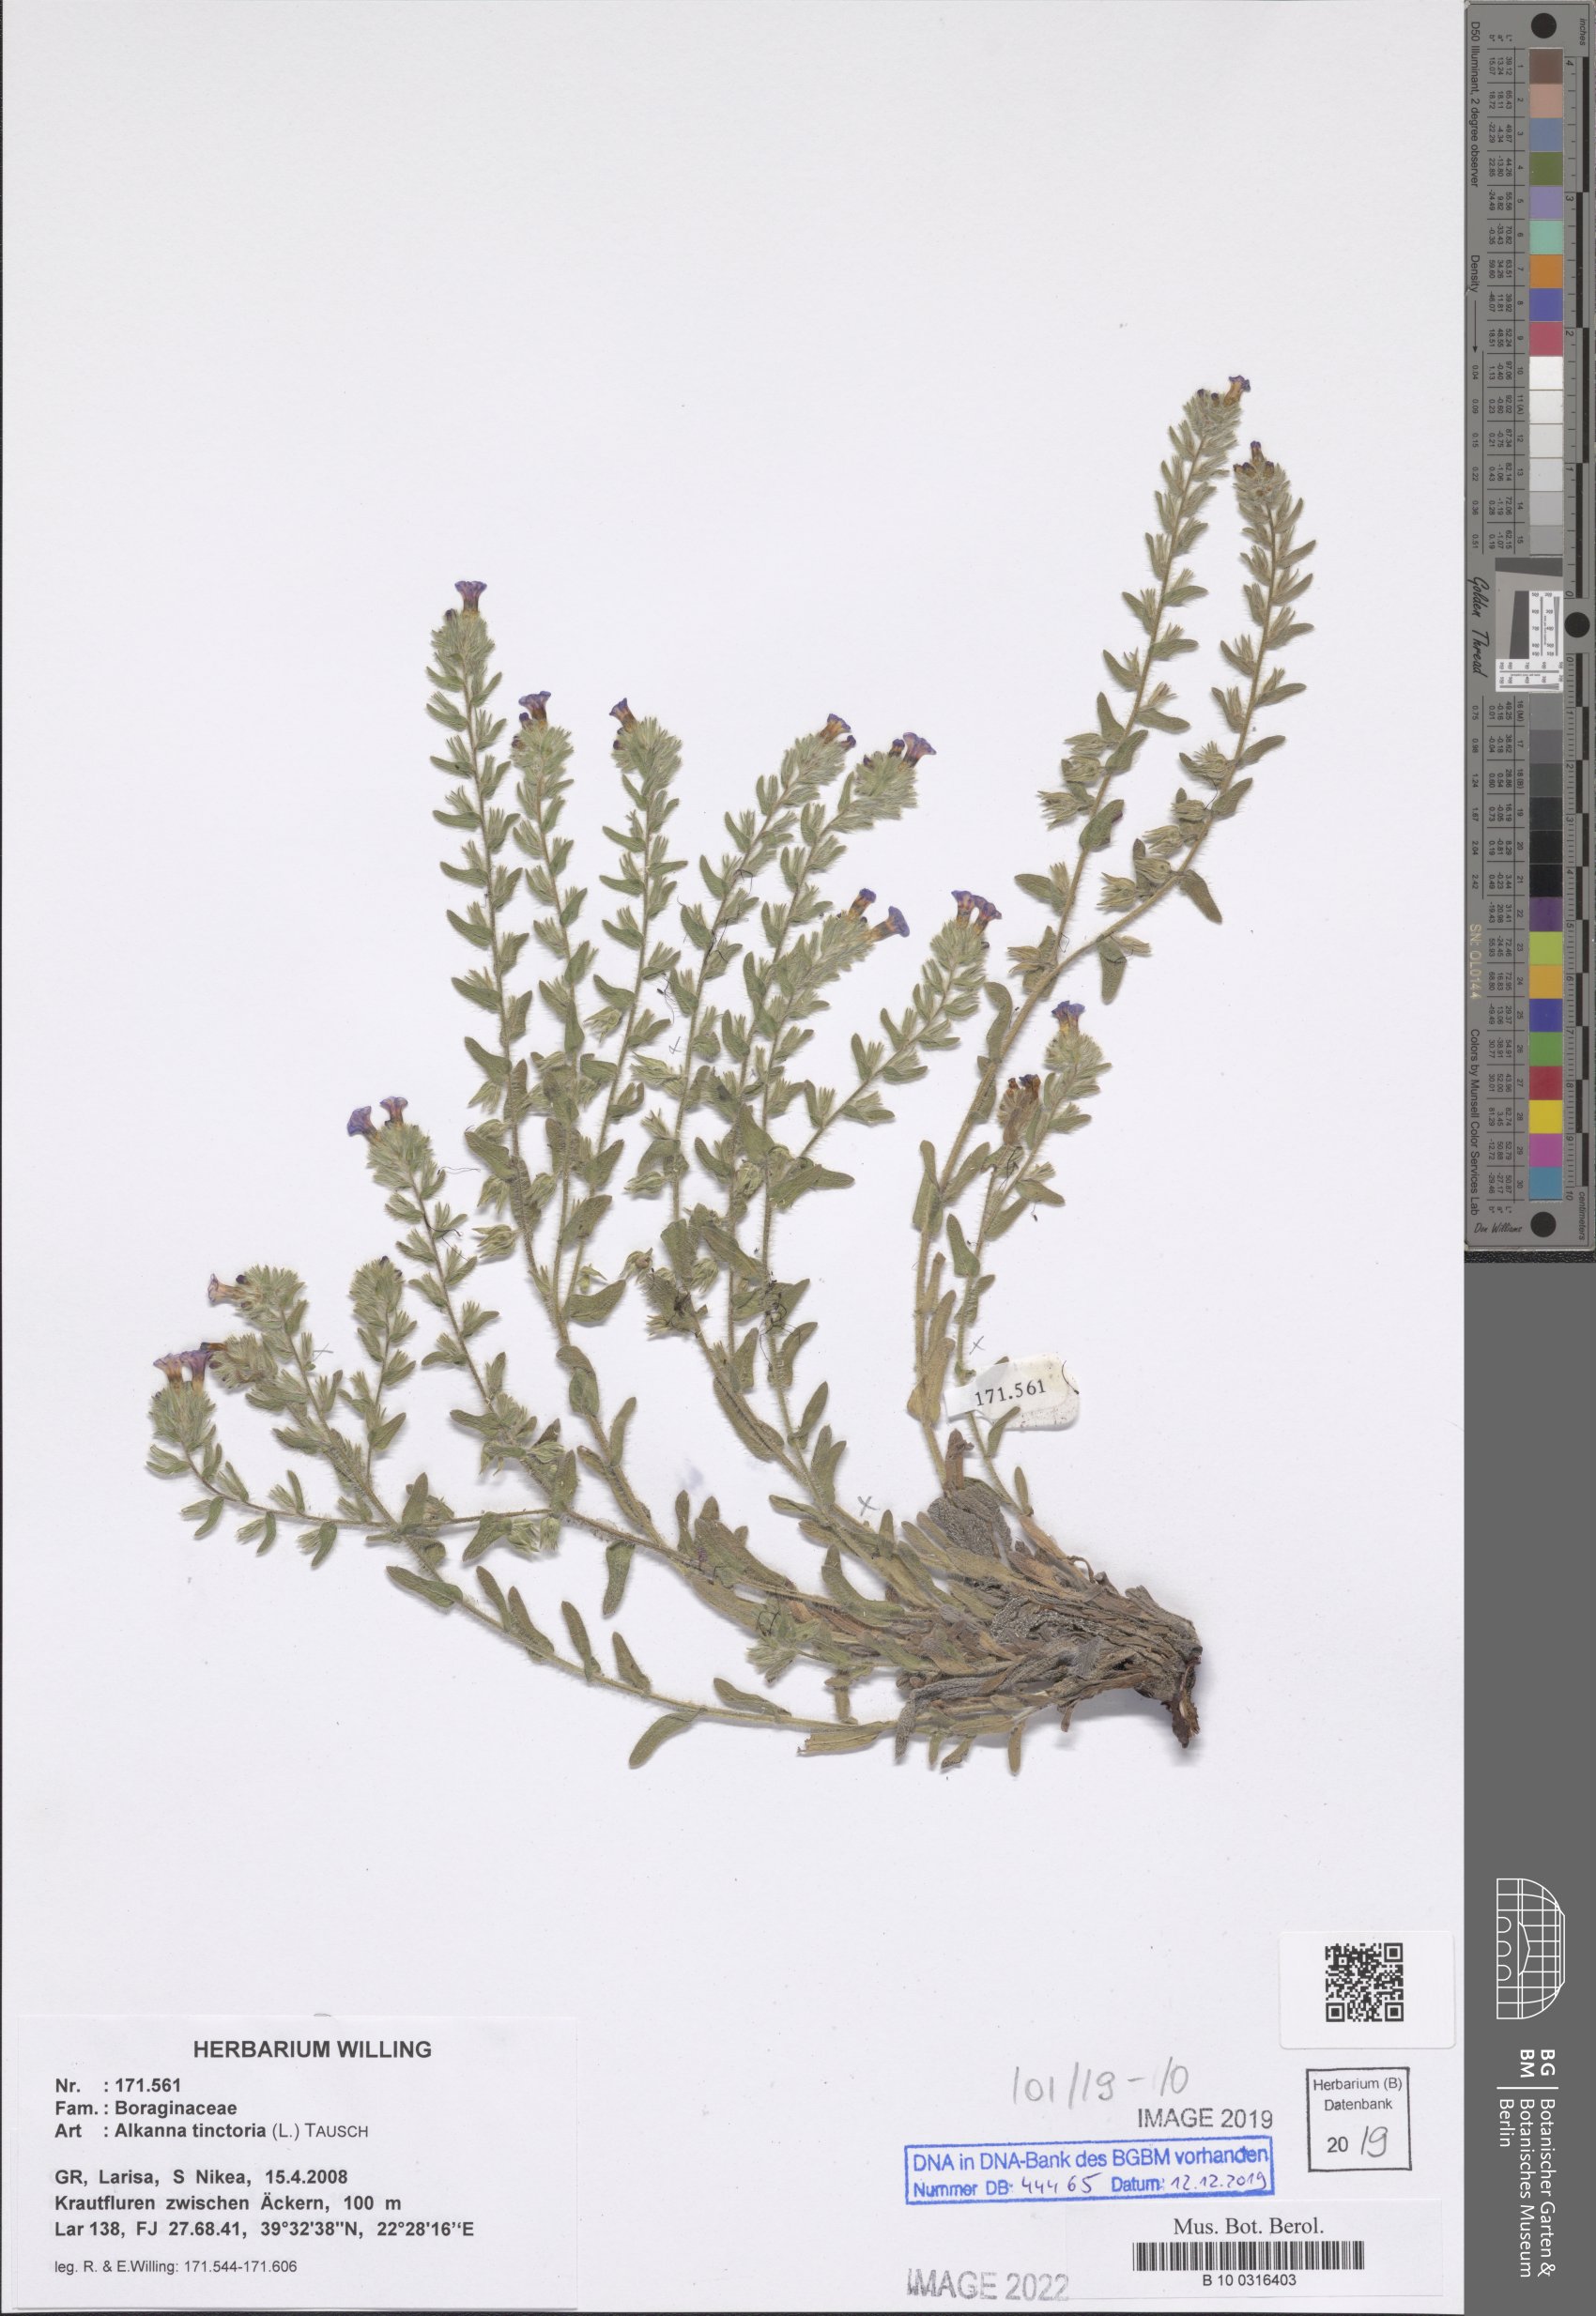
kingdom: Plantae
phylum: Tracheophyta
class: Magnoliopsida
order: Boraginales
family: Boraginaceae
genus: Alkanna
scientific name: Alkanna tinctoria
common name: Dyer's-alkanet
